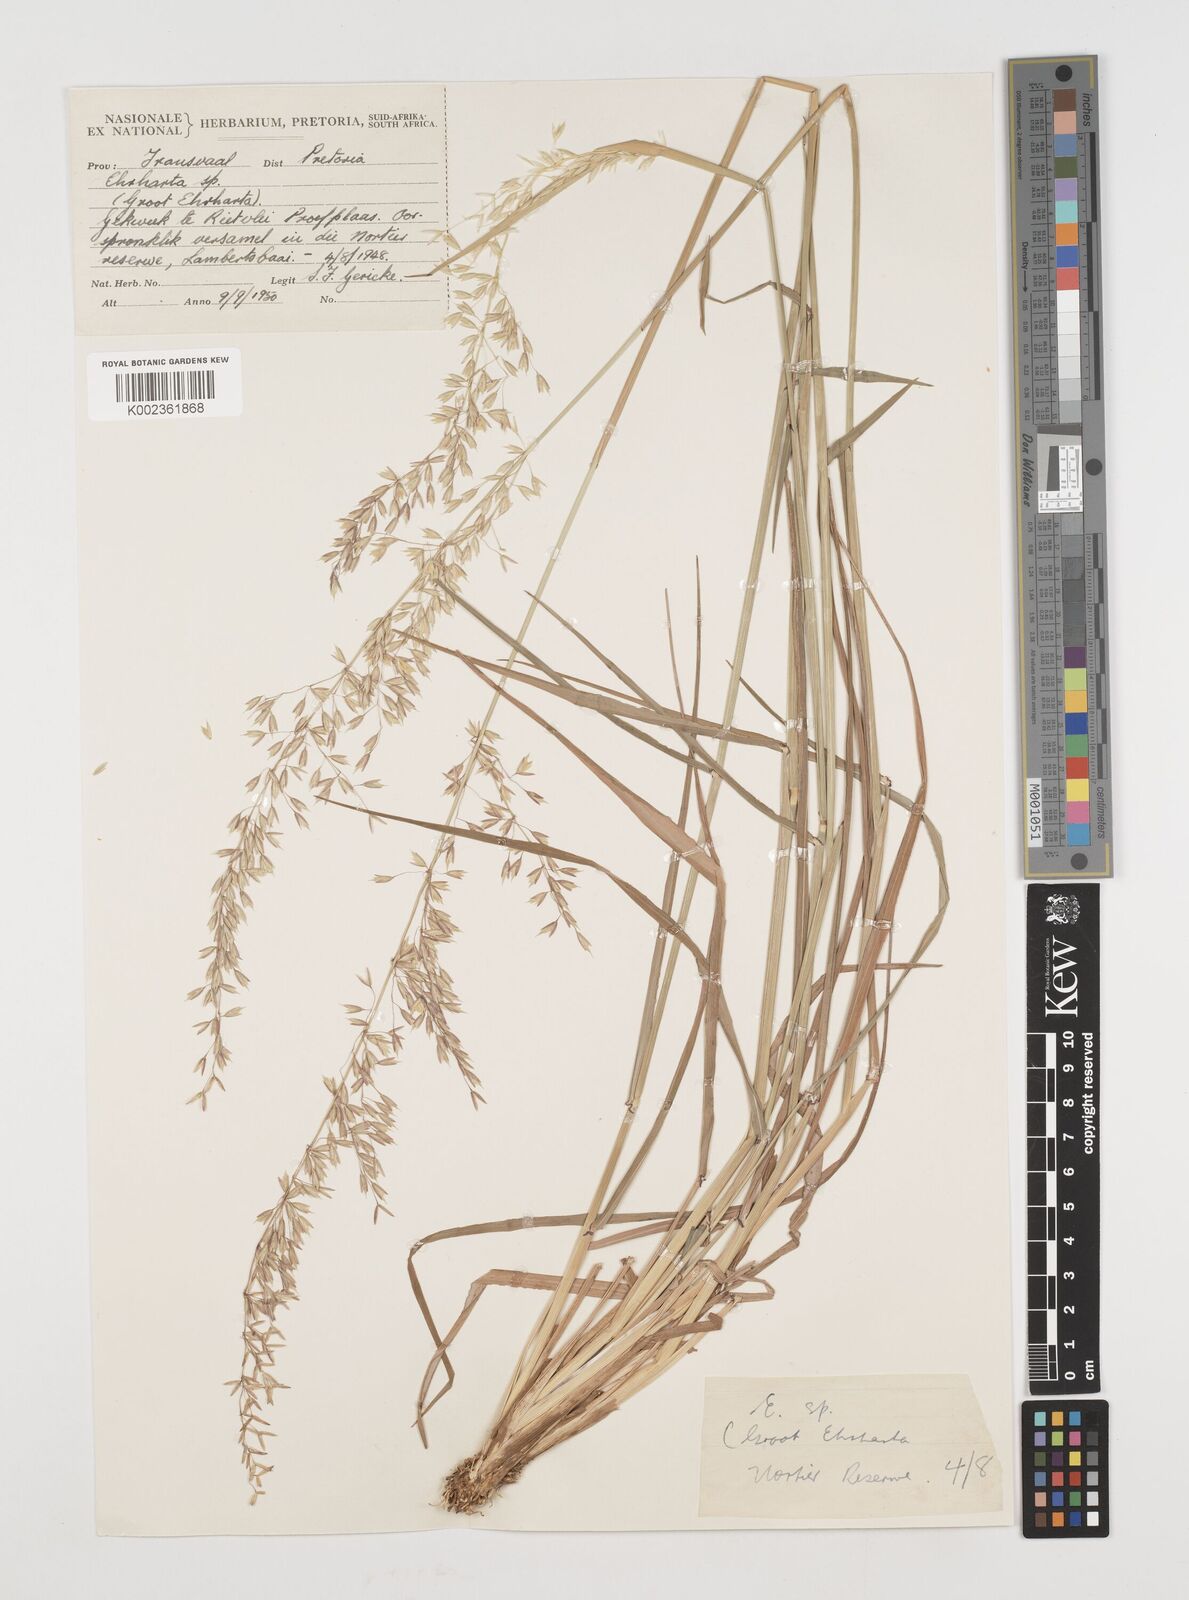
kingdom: Plantae
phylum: Tracheophyta
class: Liliopsida
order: Poales
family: Poaceae
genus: Ehrharta
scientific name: Ehrharta calycina
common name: Perennial veldtgrass
